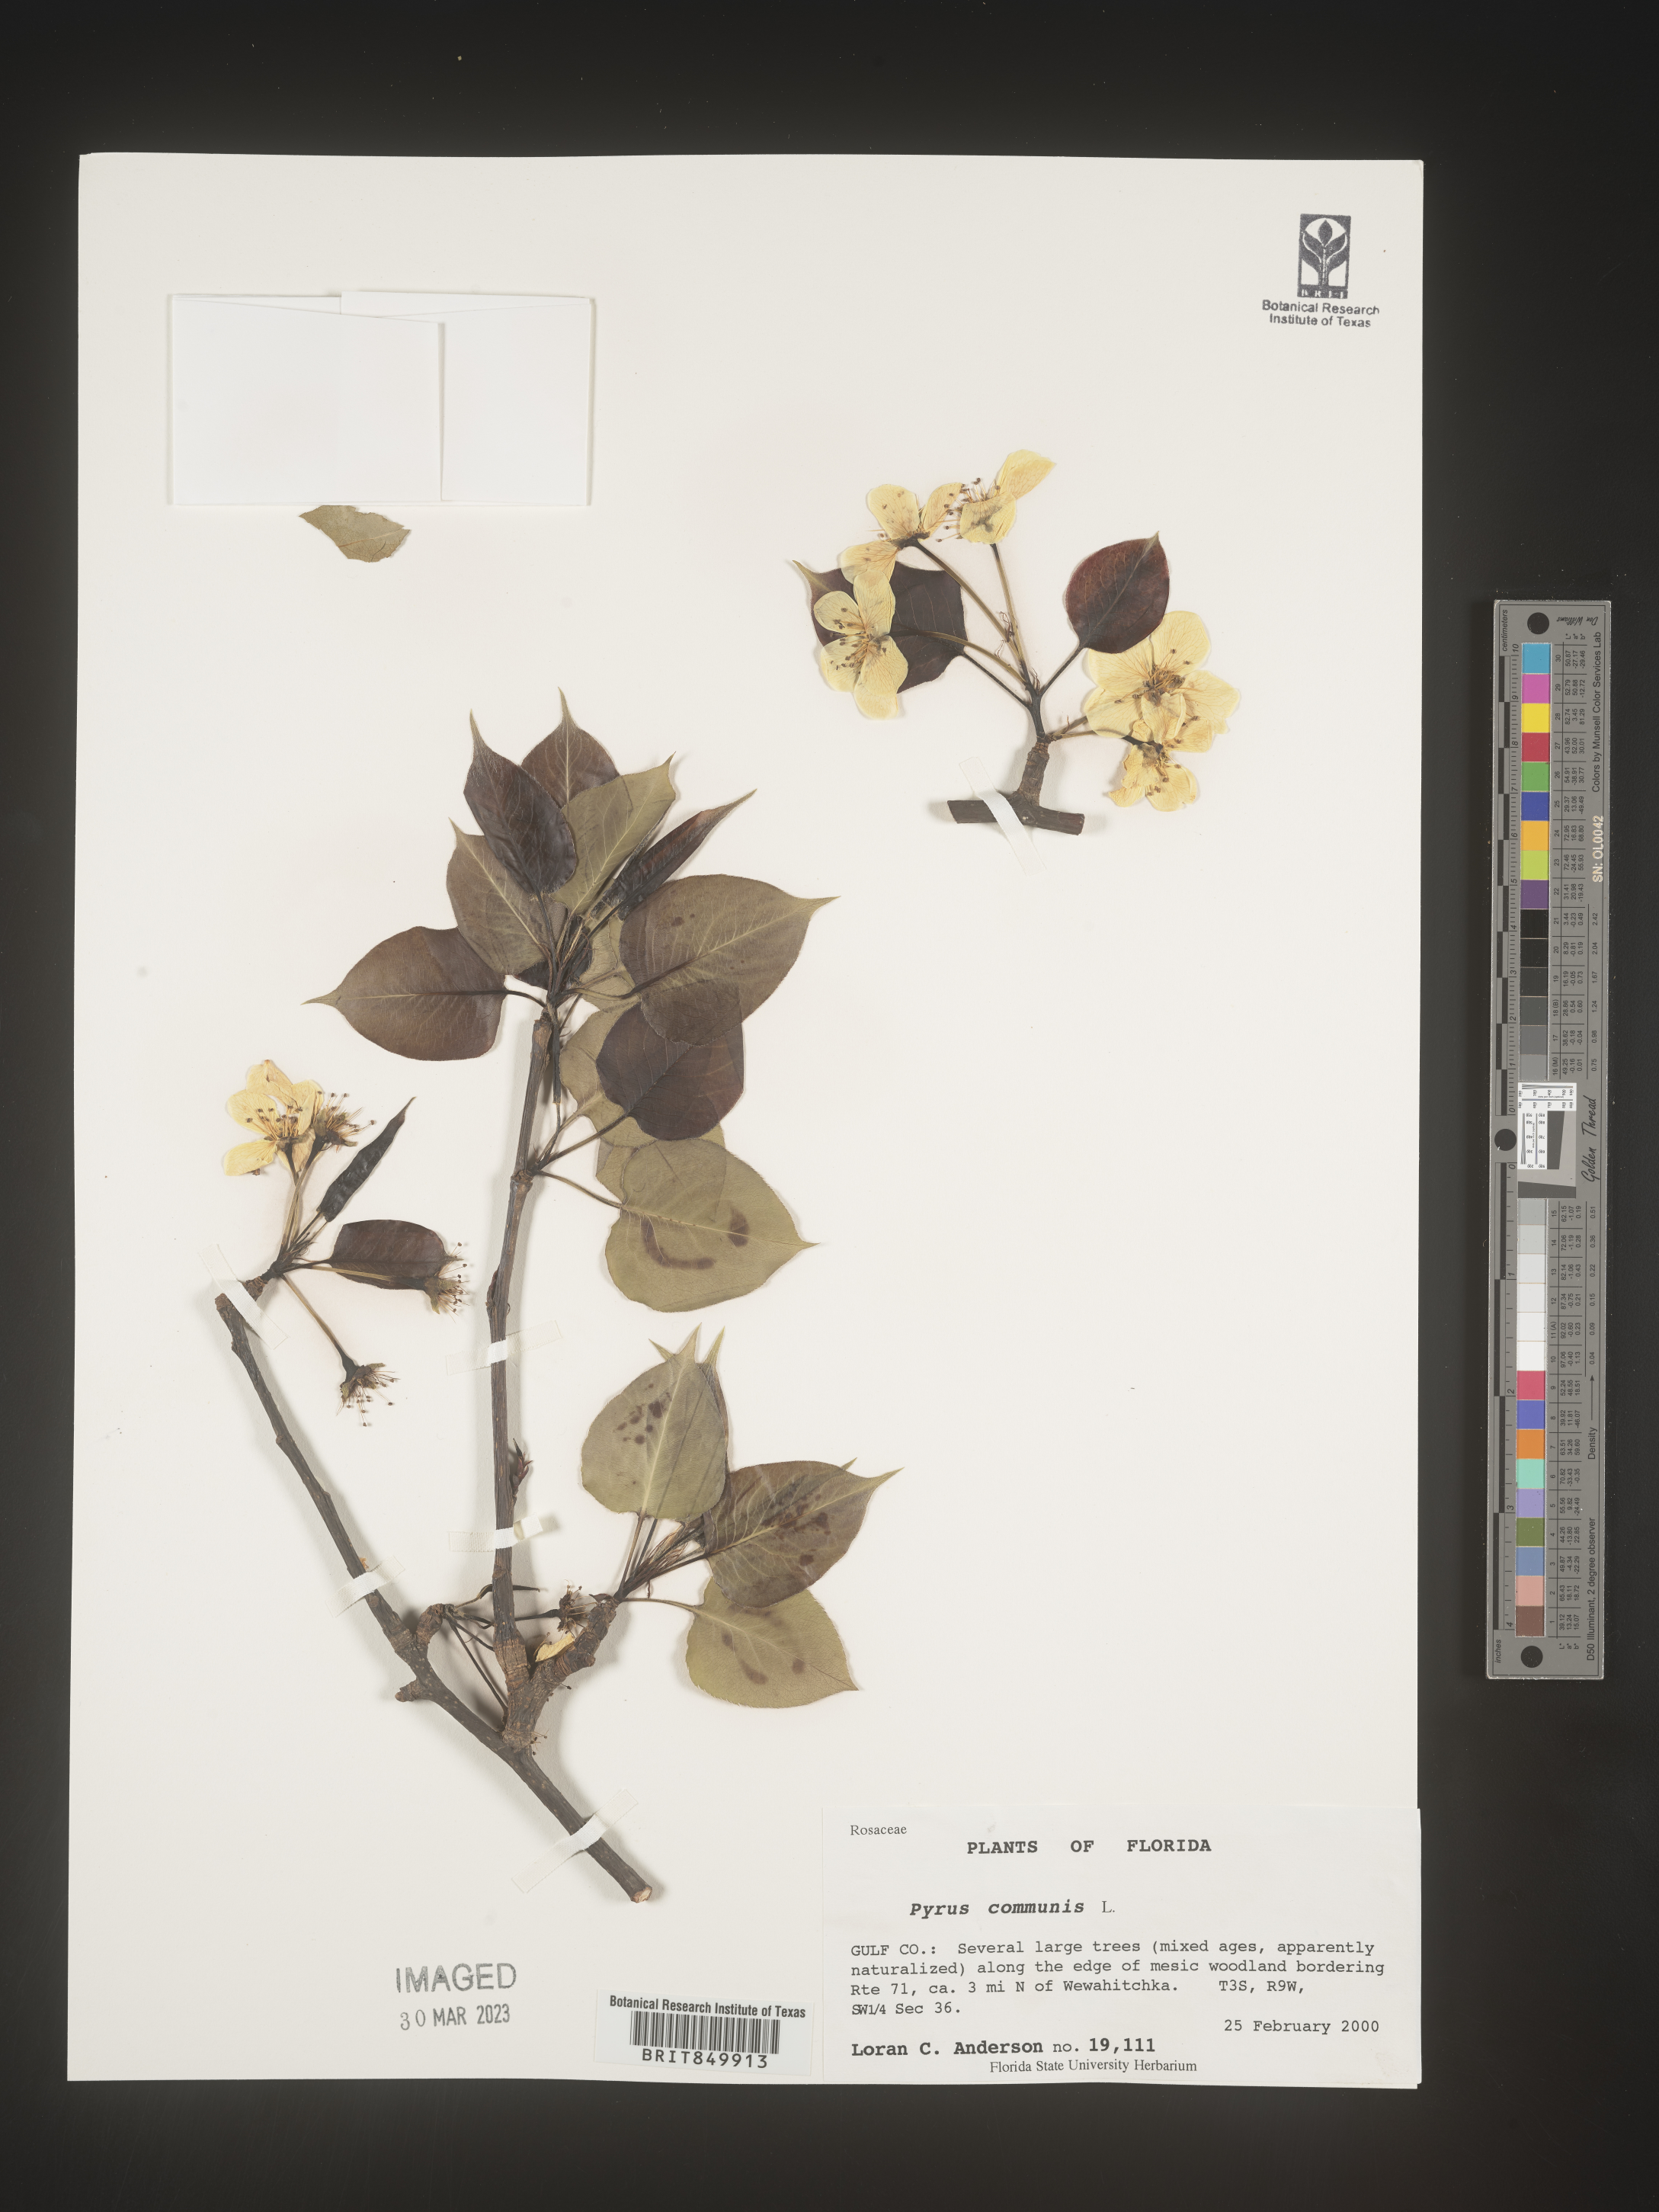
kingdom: Plantae
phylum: Tracheophyta
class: Magnoliopsida
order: Rosales
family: Rosaceae
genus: Pyrus
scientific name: Pyrus
